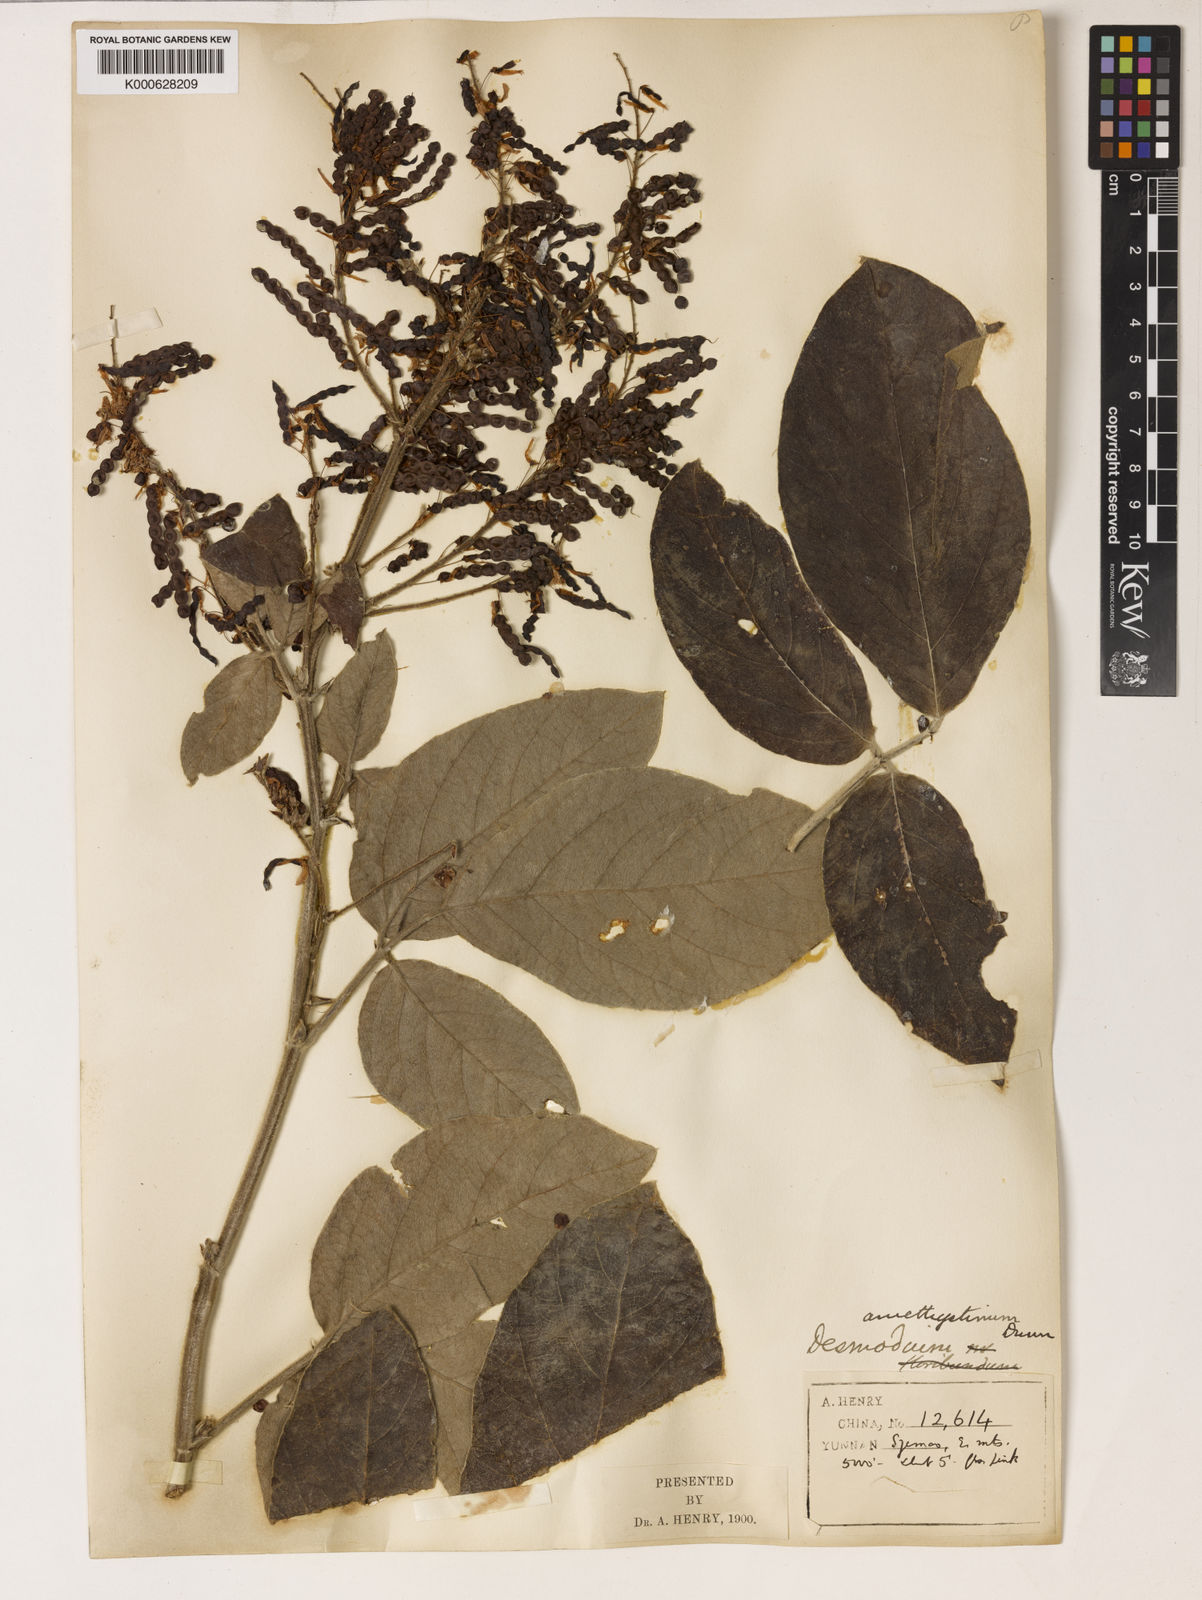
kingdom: Plantae
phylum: Tracheophyta
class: Magnoliopsida
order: Fabales
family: Fabaceae
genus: Ototropis
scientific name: Ototropis amethystina
